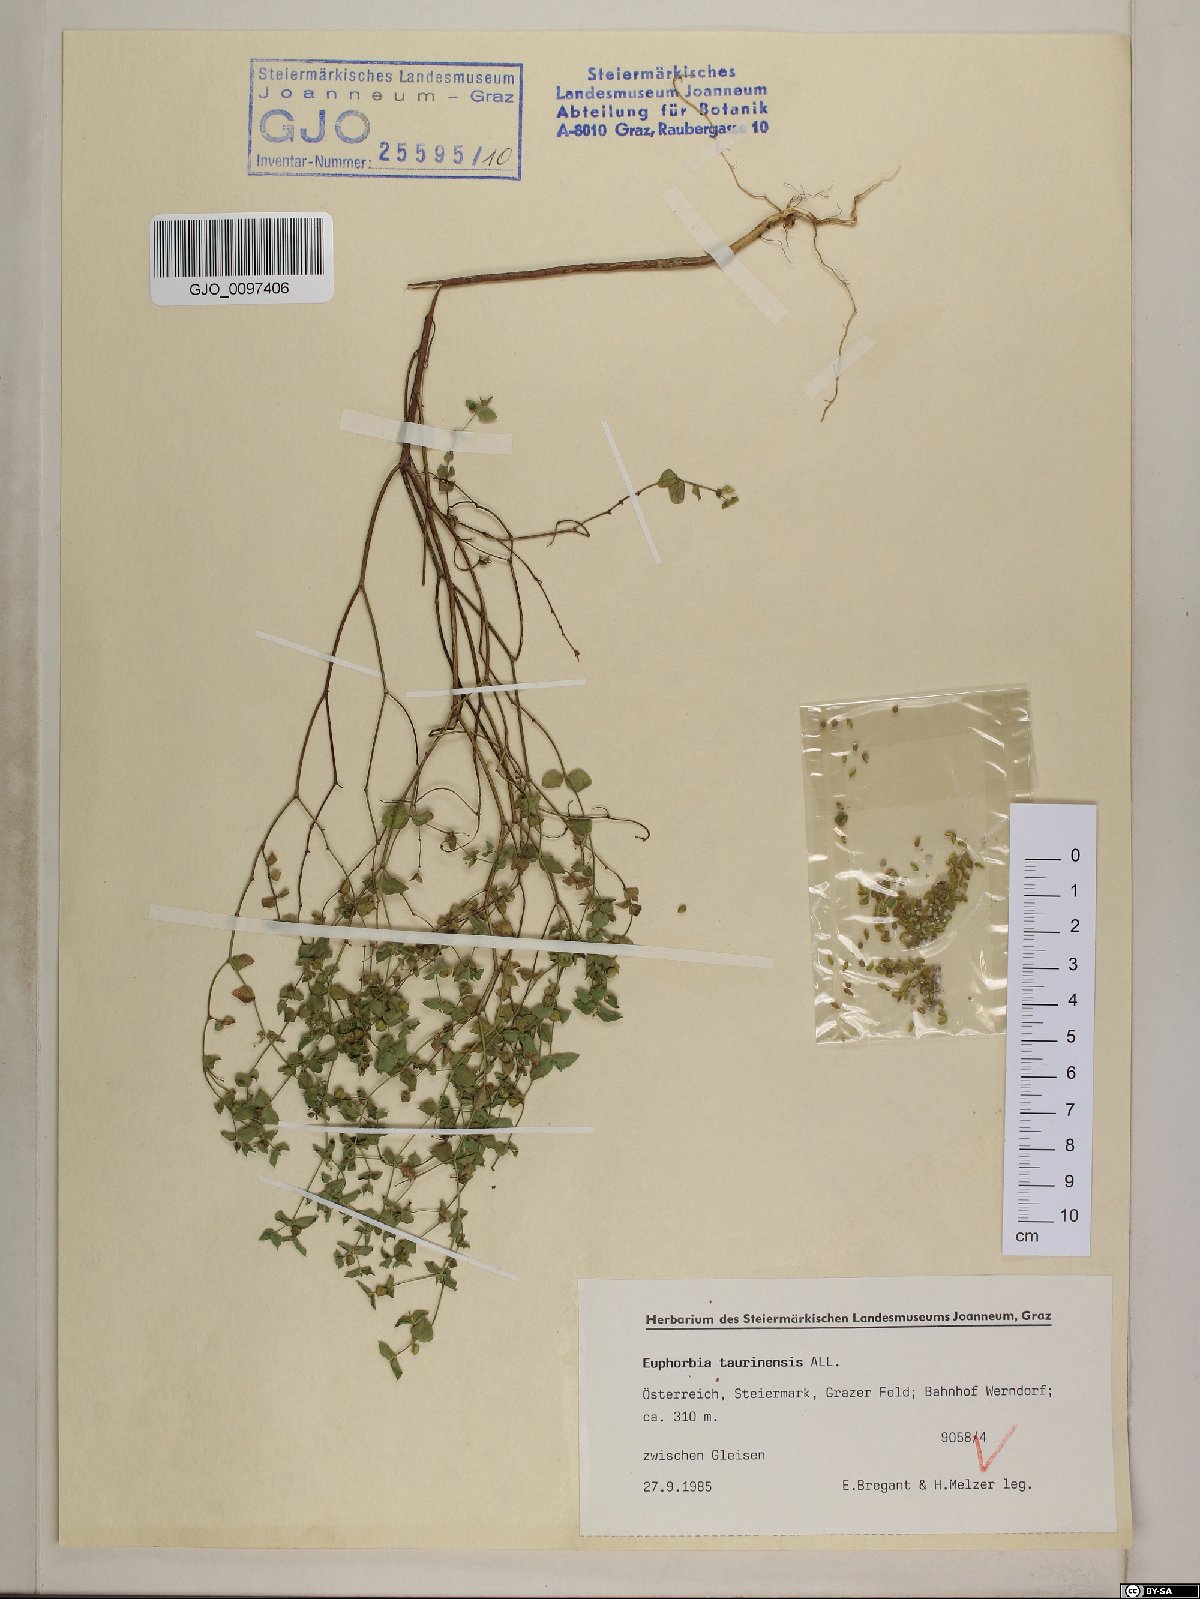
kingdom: Plantae
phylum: Tracheophyta
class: Magnoliopsida
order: Malpighiales
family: Euphorbiaceae
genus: Euphorbia
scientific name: Euphorbia taurinensis
